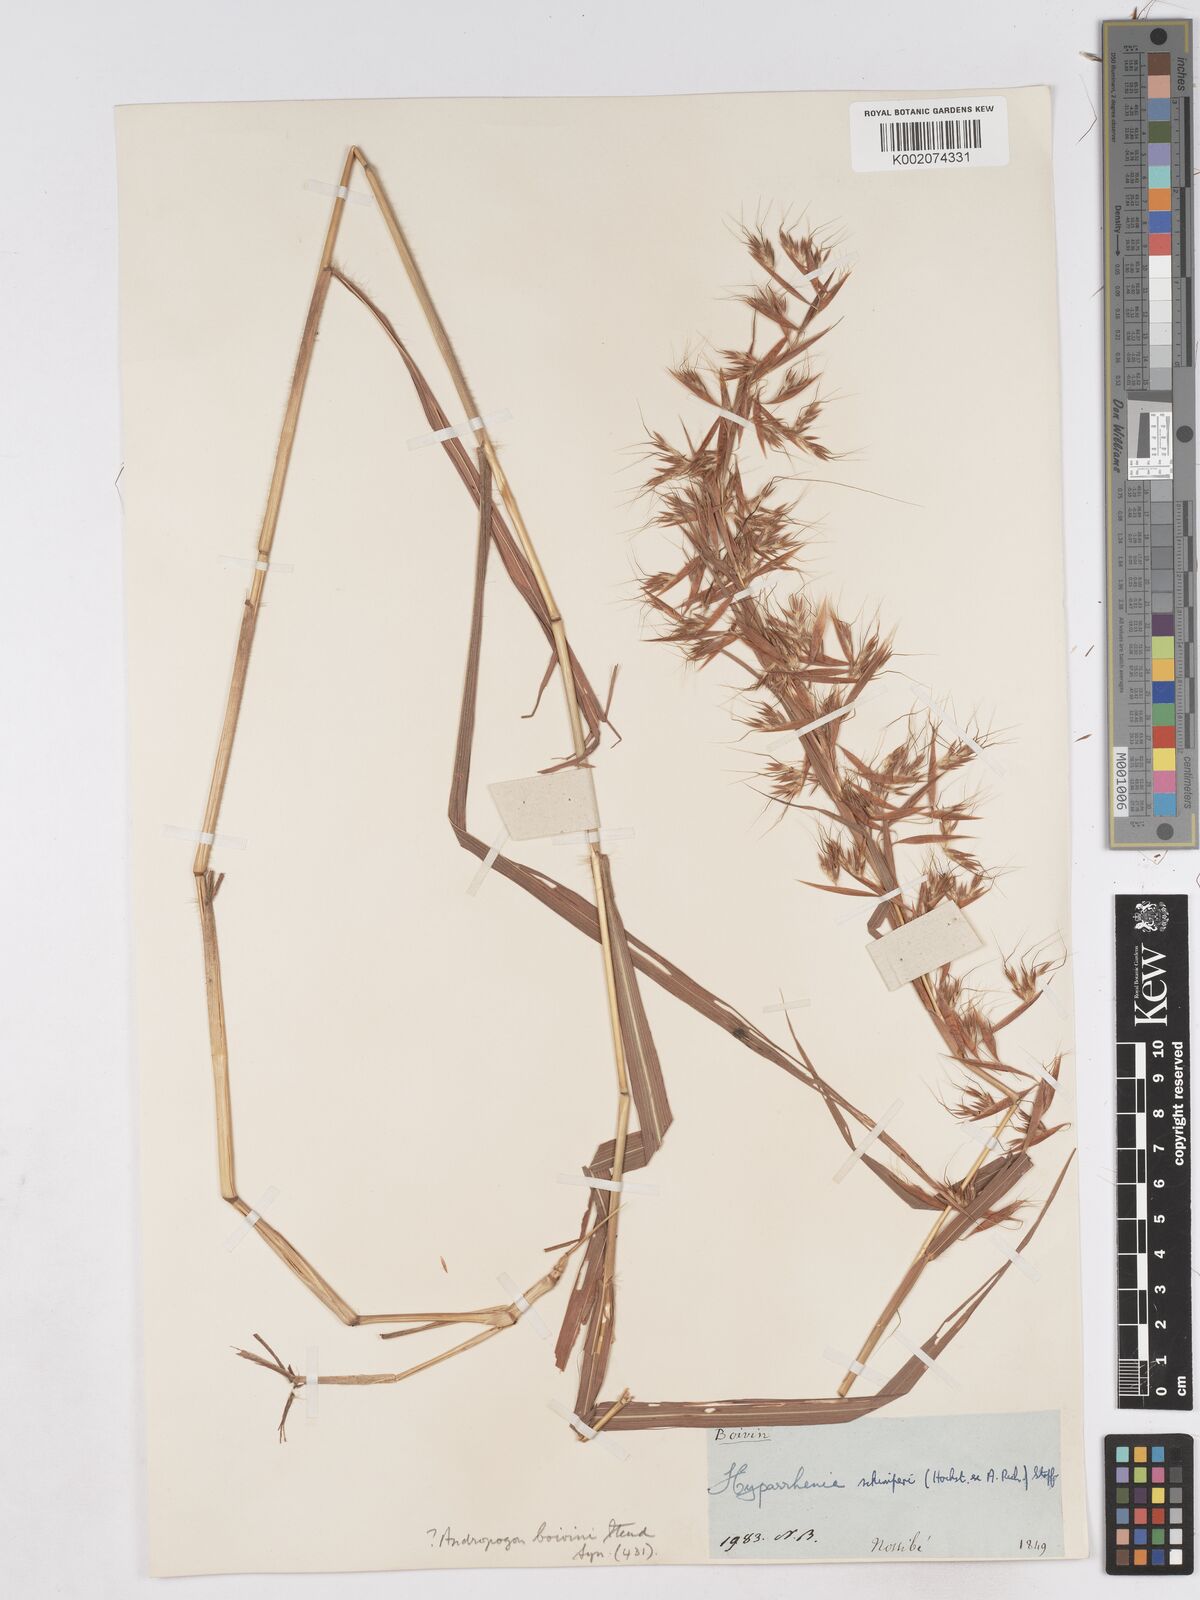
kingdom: Plantae
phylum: Tracheophyta
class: Liliopsida
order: Poales
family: Poaceae
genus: Hyparrhenia
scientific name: Hyparrhenia variabilis
